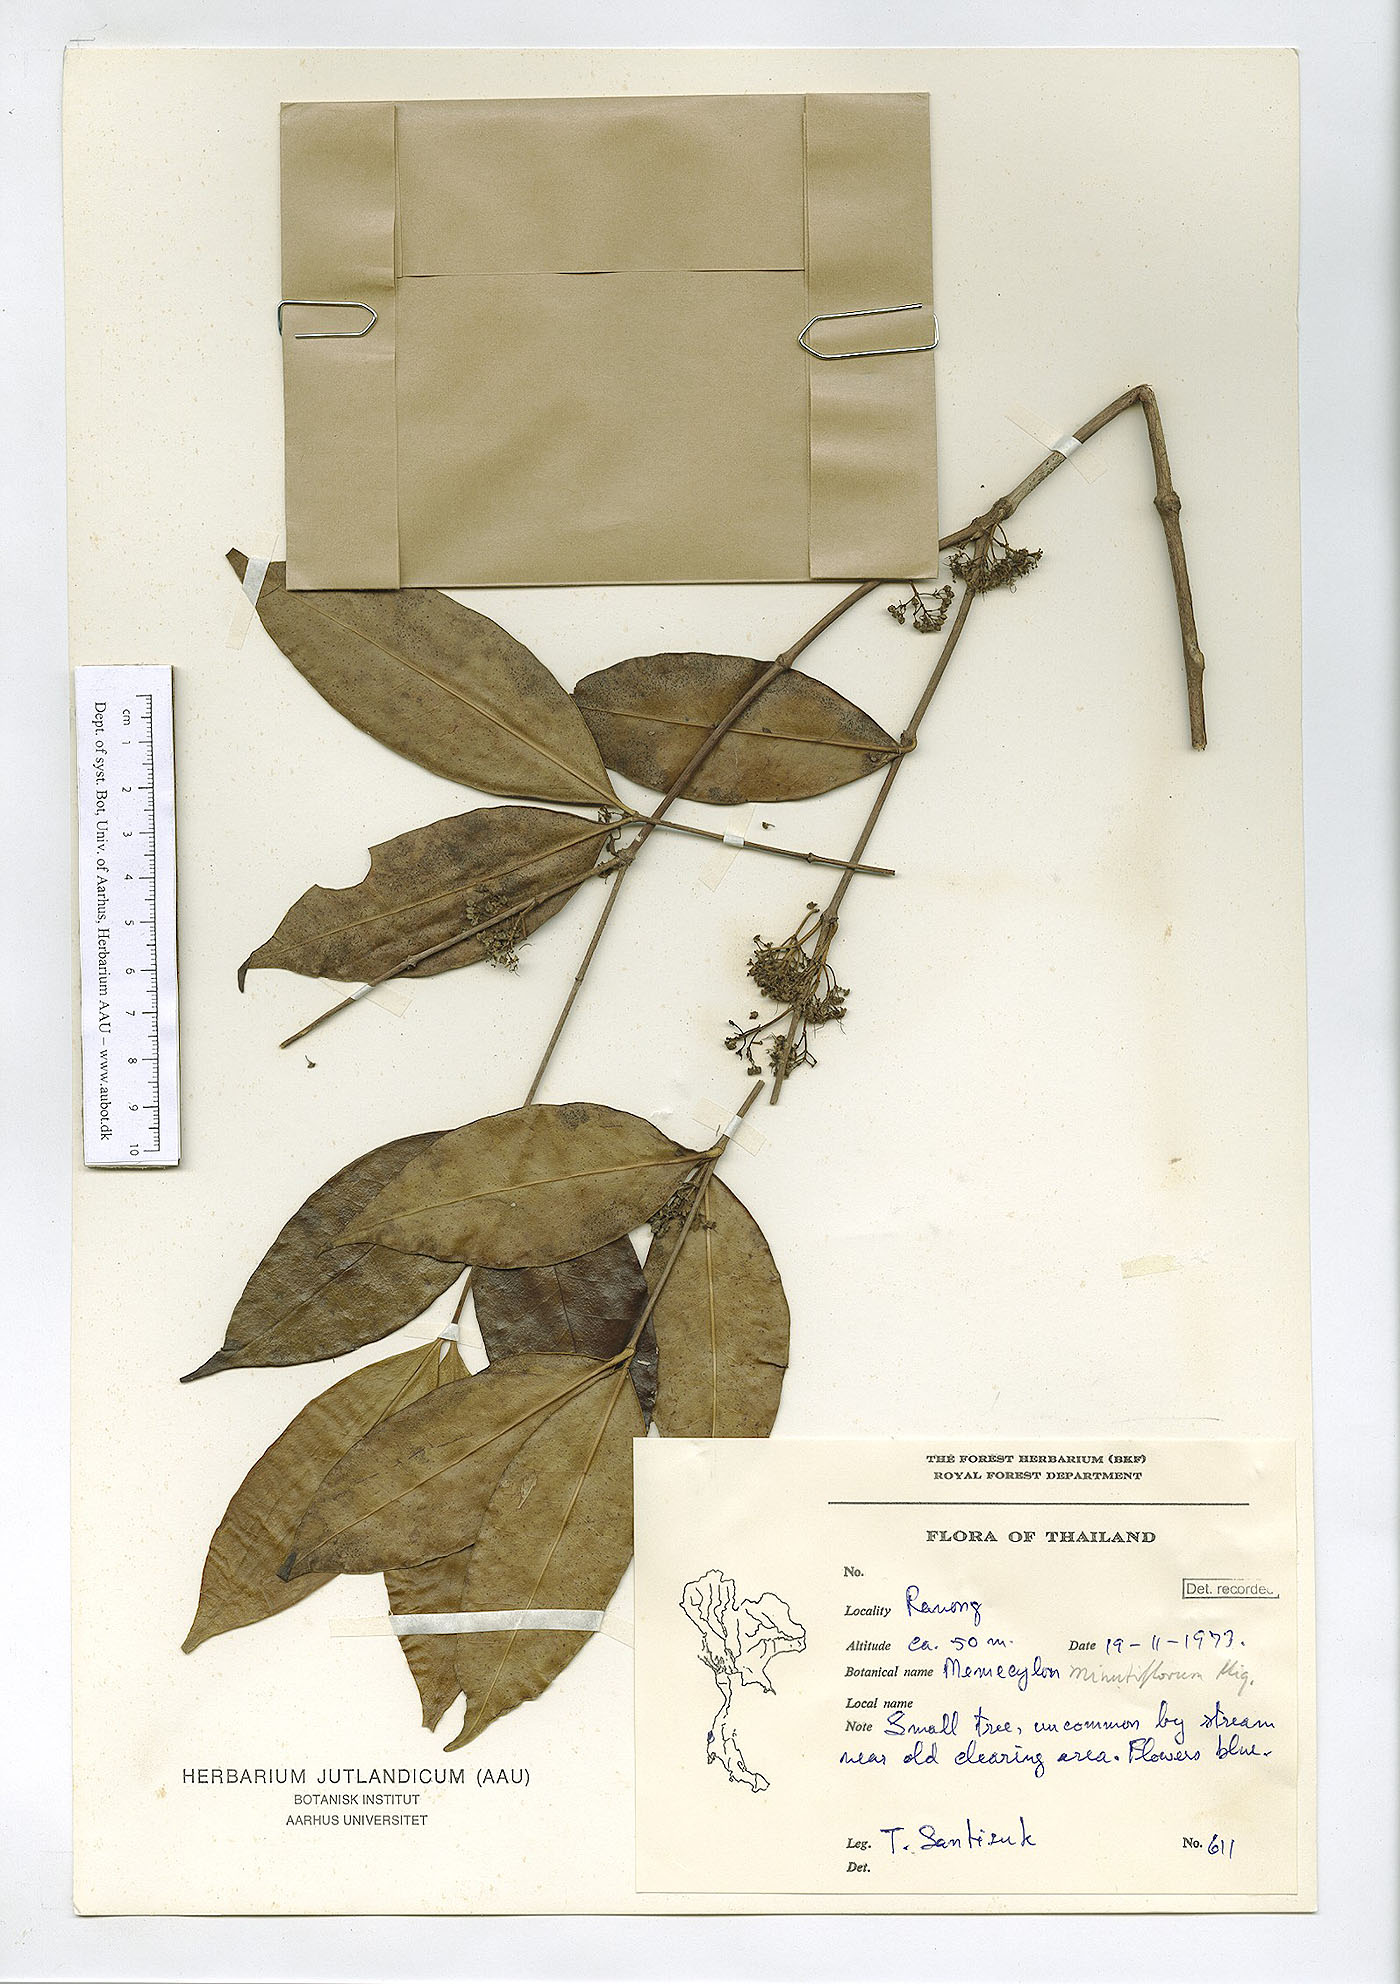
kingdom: Plantae
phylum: Tracheophyta
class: Magnoliopsida
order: Myrtales
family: Melastomataceae
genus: Memecylon
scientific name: Memecylon minutiflorum
